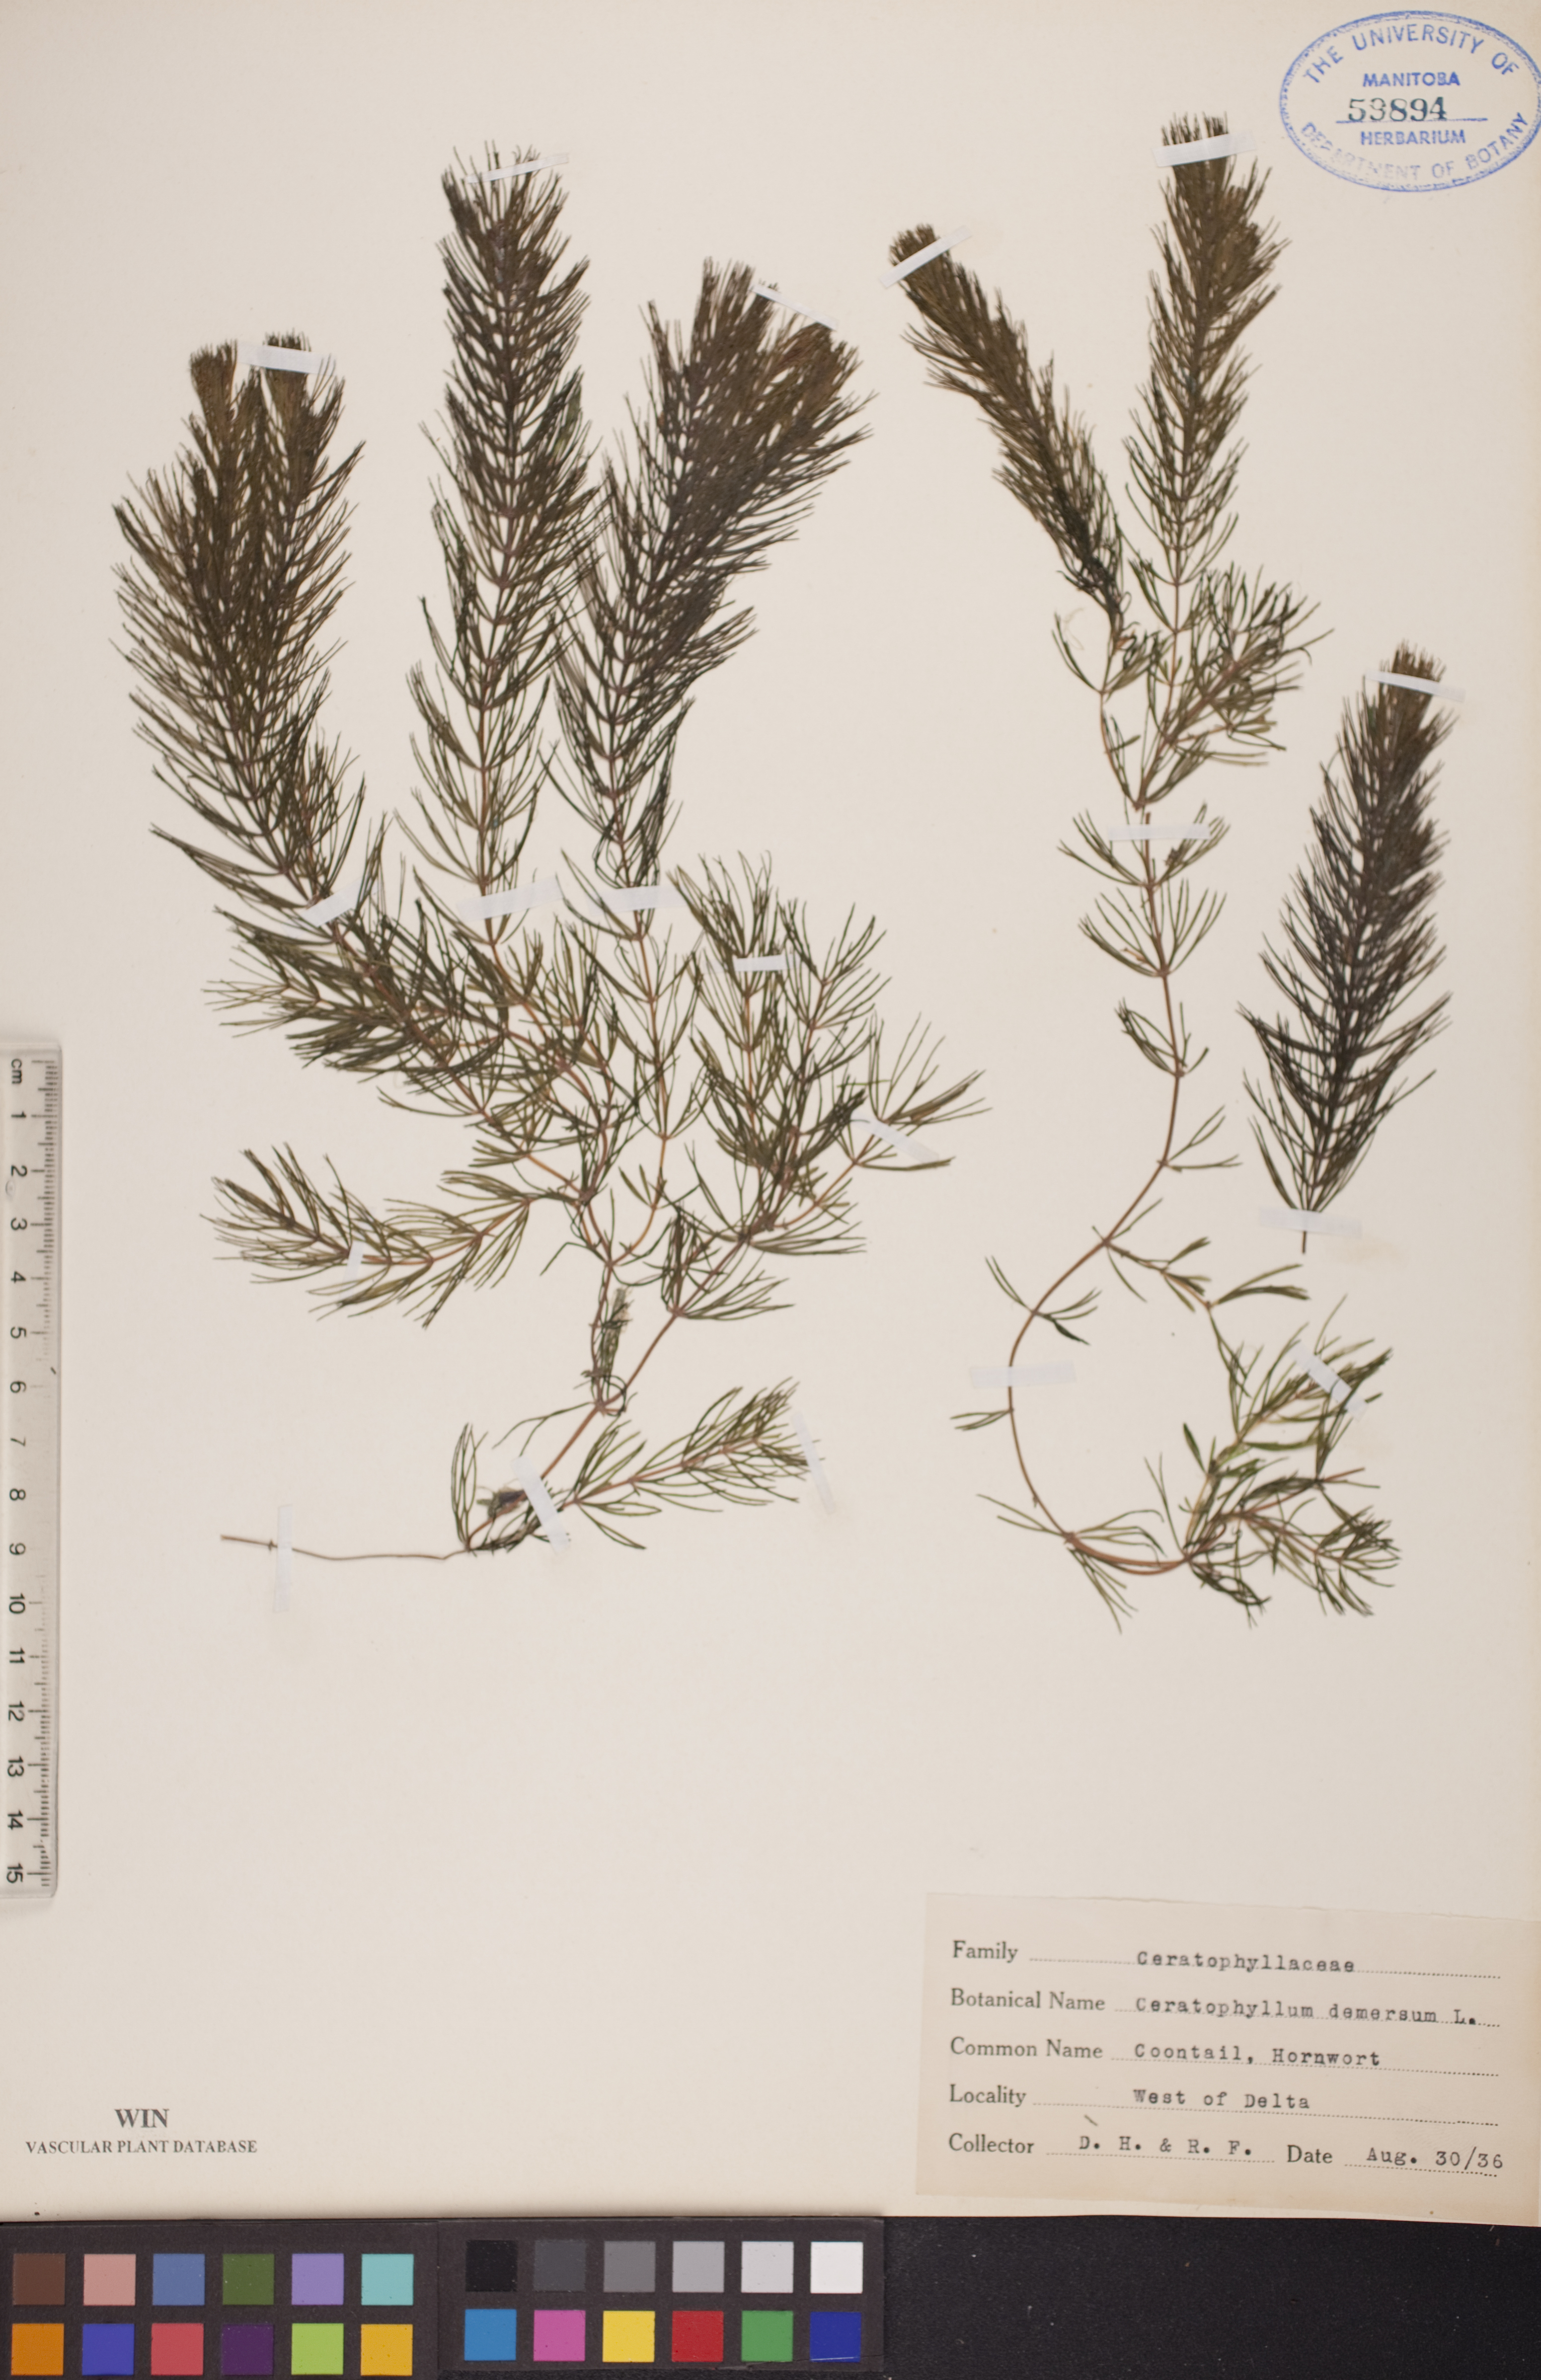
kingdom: Plantae
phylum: Tracheophyta
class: Magnoliopsida
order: Ceratophyllales
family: Ceratophyllaceae
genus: Ceratophyllum
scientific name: Ceratophyllum demersum
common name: Rigid hornwort
